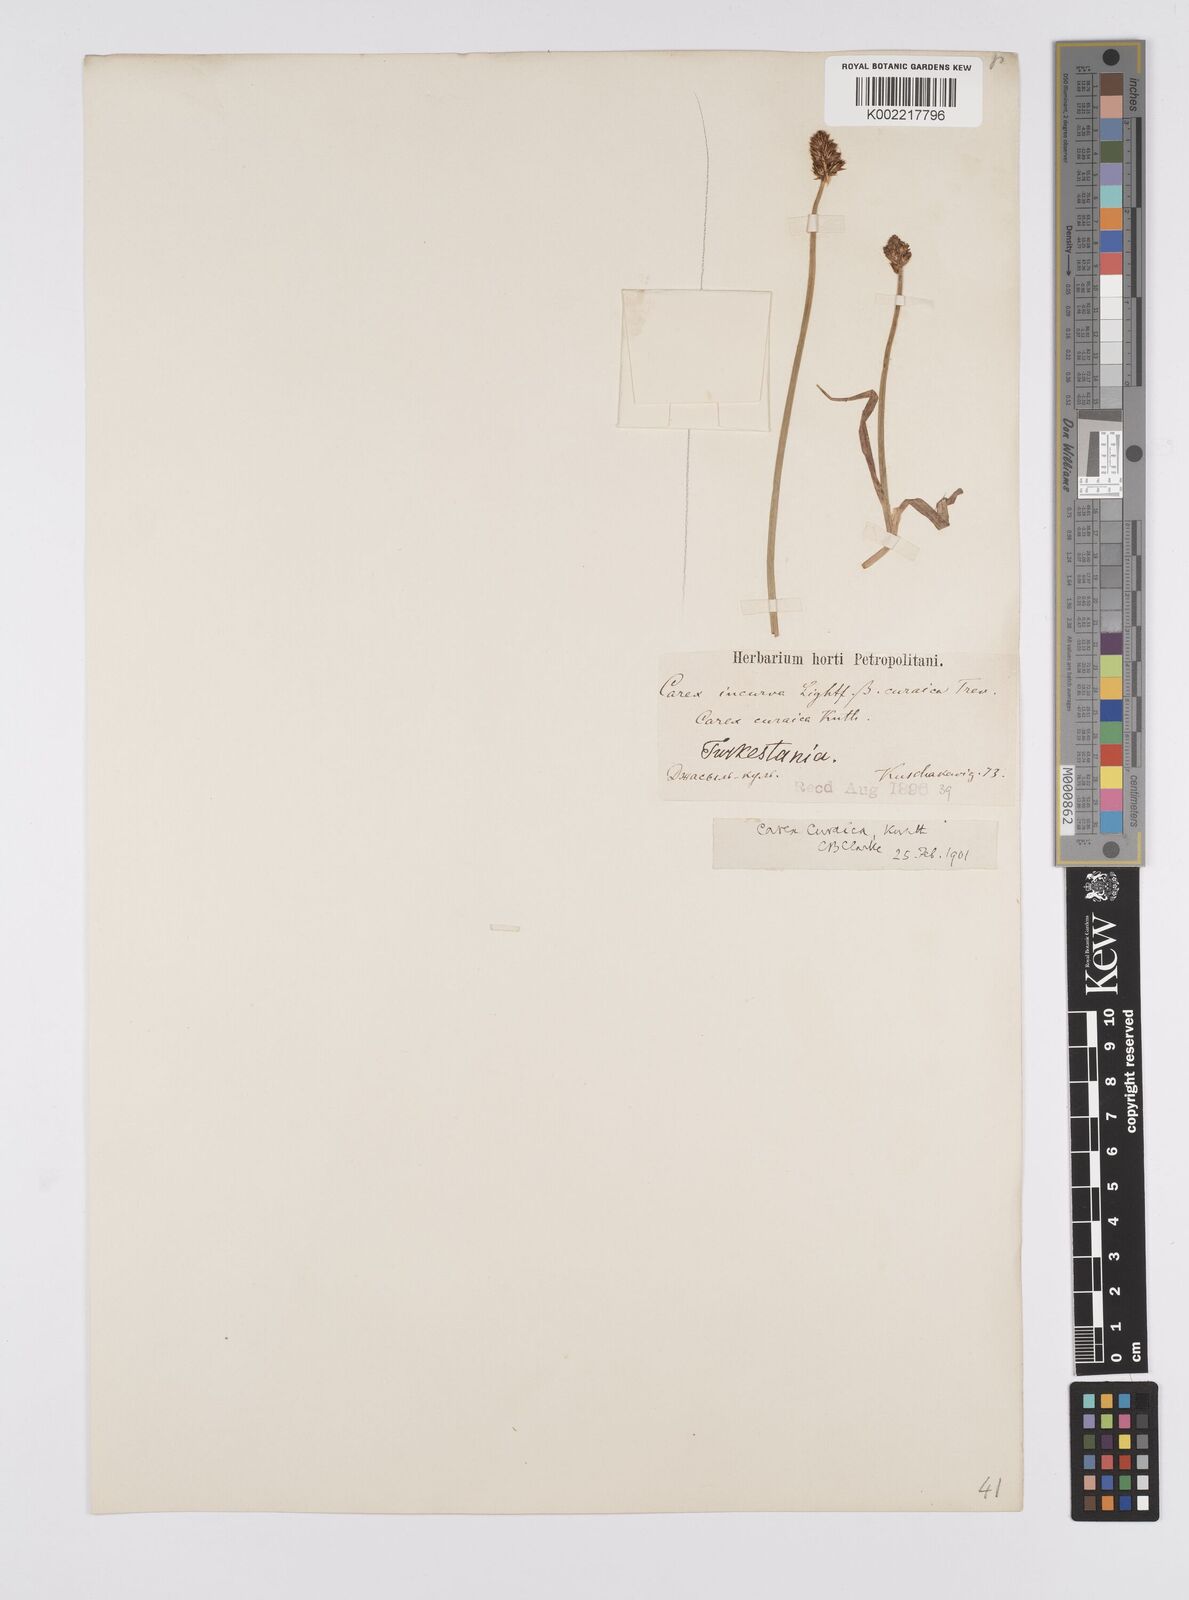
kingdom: Plantae
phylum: Tracheophyta
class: Liliopsida
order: Poales
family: Cyperaceae
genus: Carex
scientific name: Carex curaica
